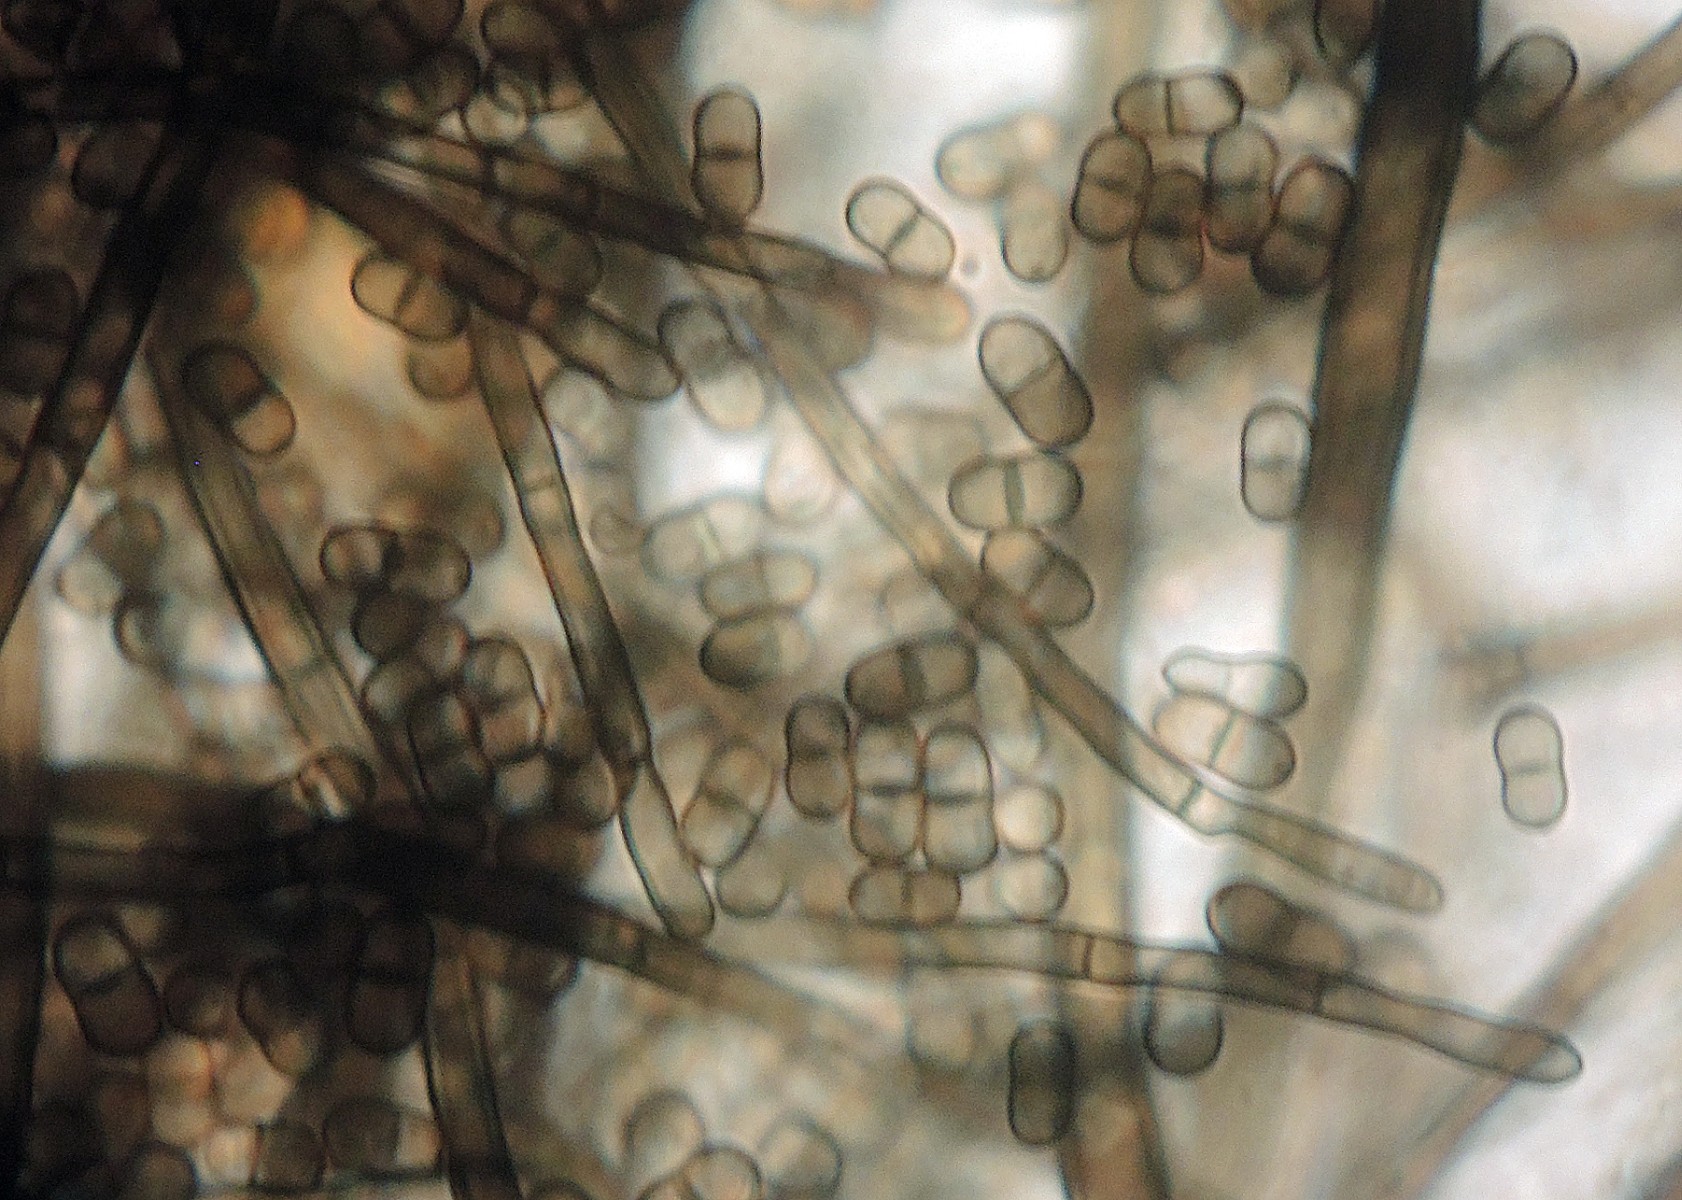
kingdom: Fungi
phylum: Ascomycota
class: Sordariomycetes
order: Sordariales
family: Helminthosphaeriaceae
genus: Spadicoides
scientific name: Spadicoides bina
